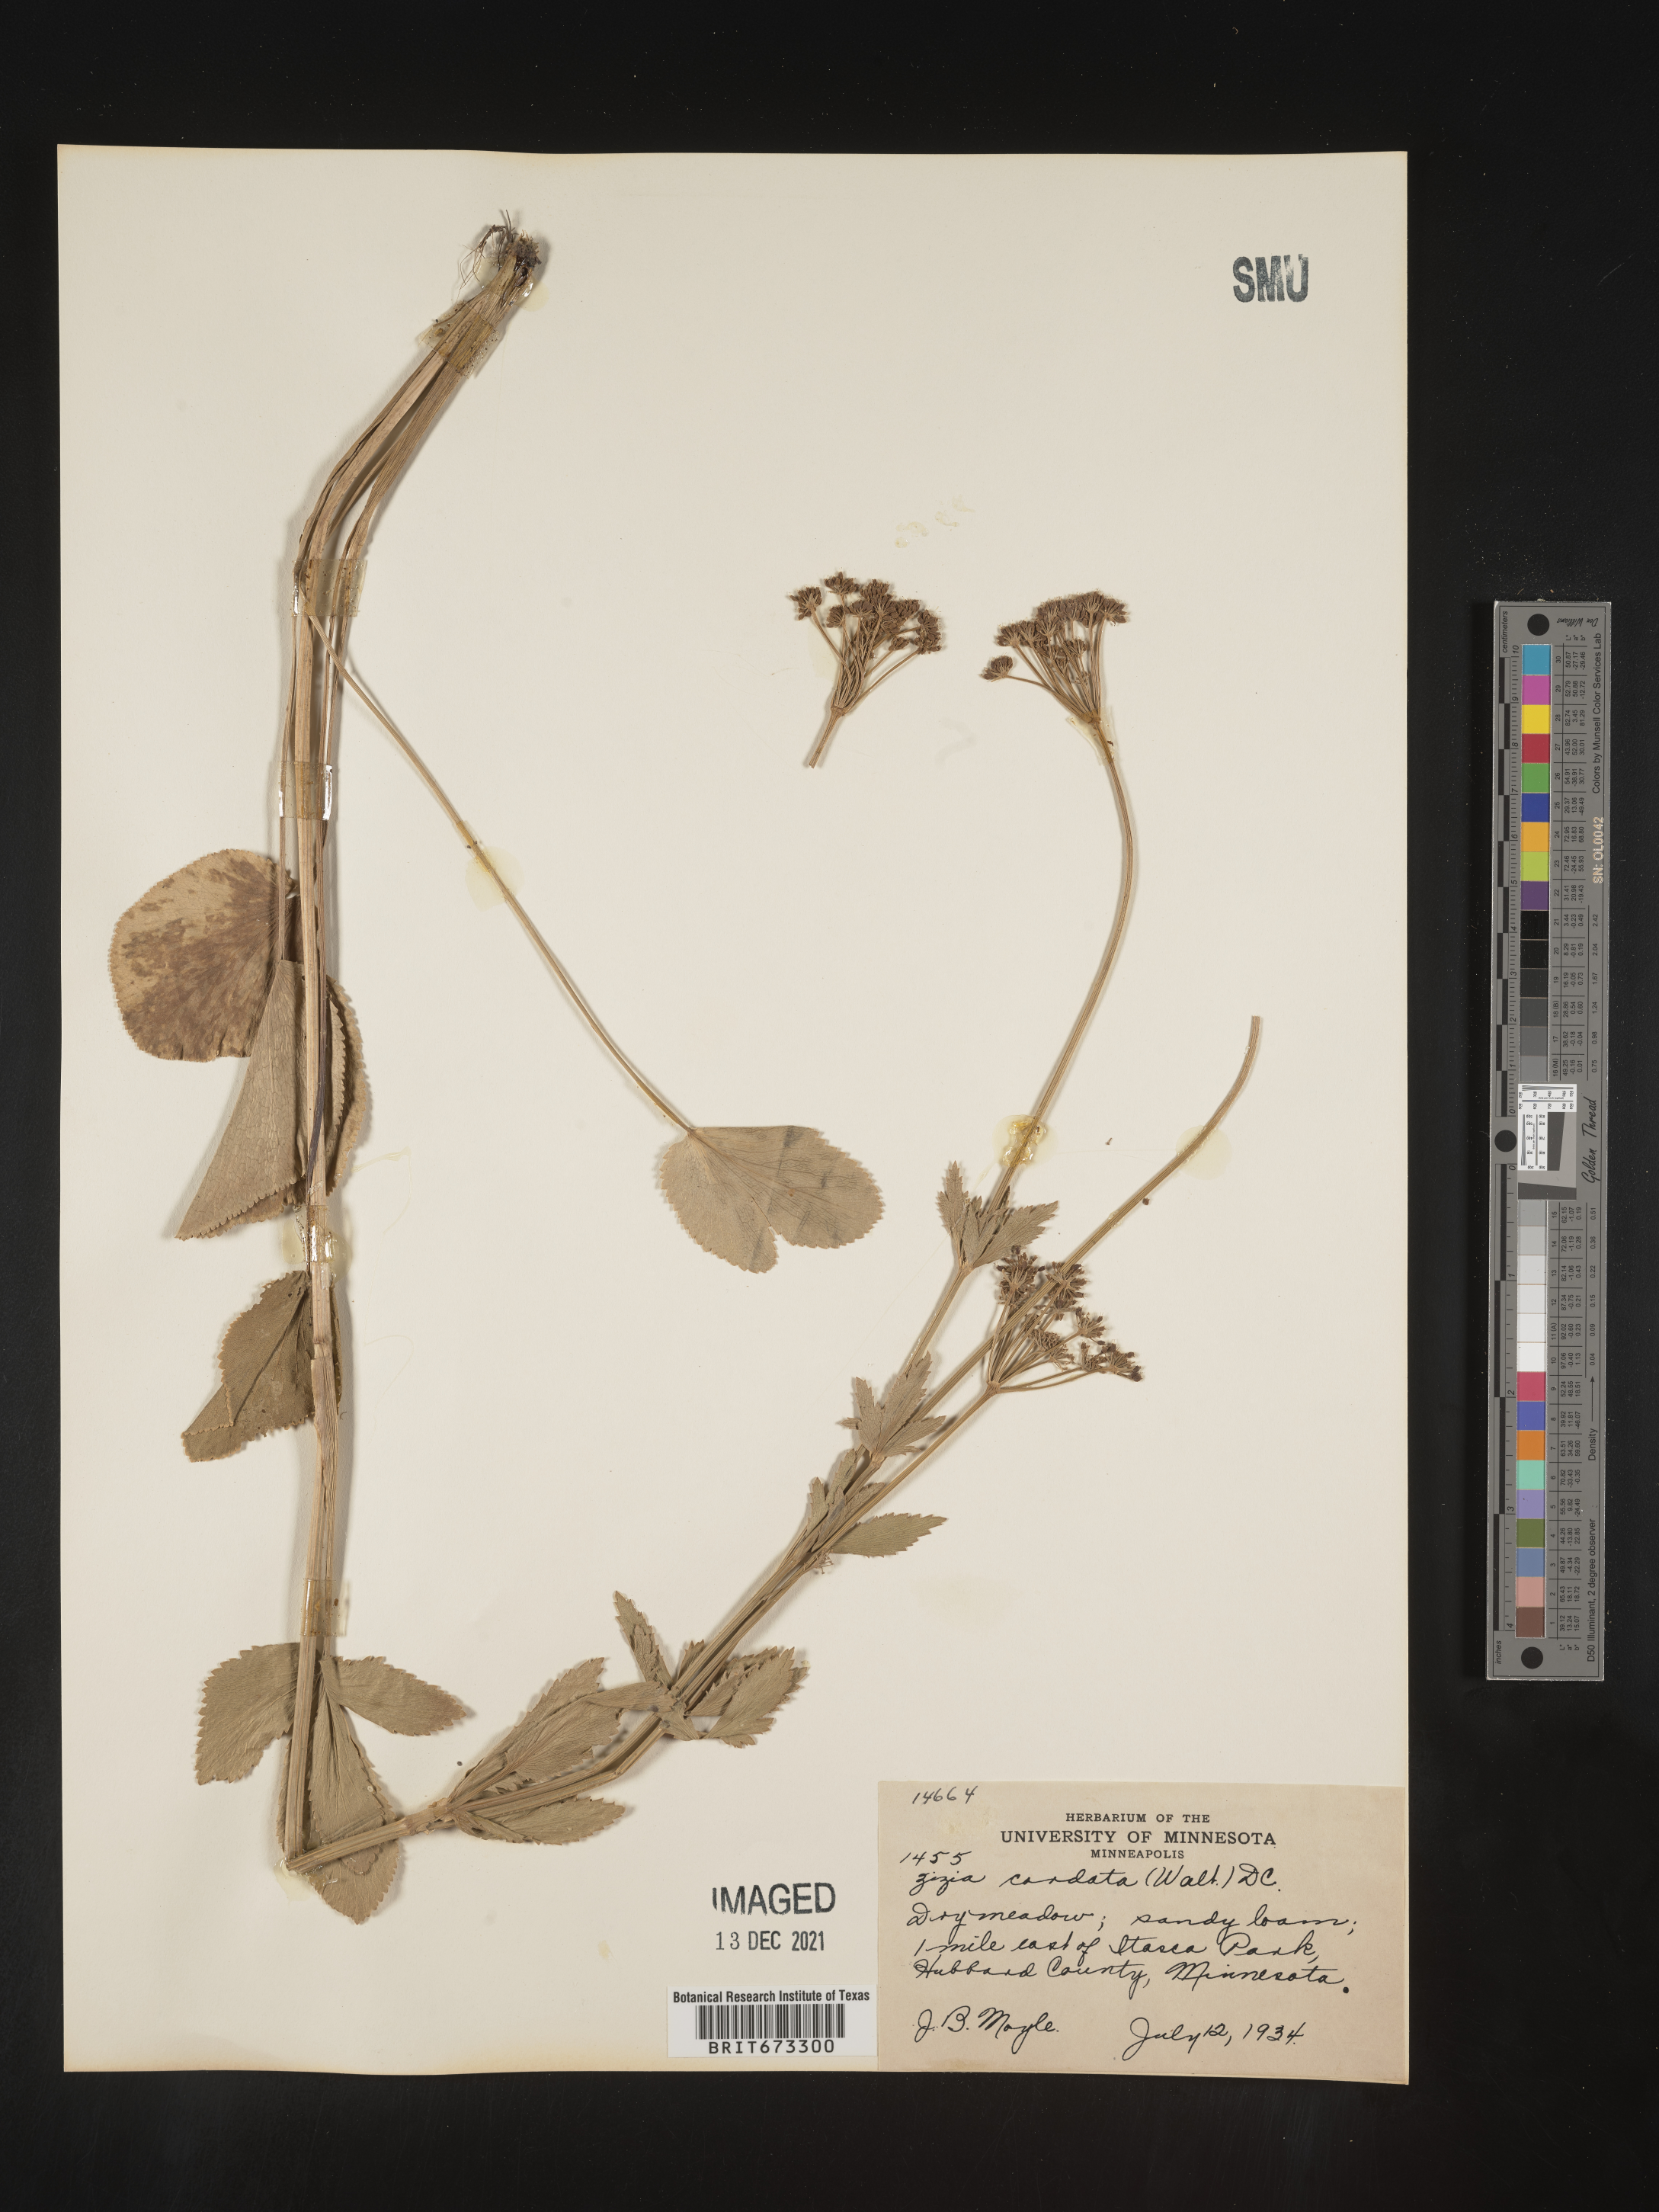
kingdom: Plantae
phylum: Tracheophyta
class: Magnoliopsida
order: Apiales
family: Apiaceae
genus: Zizia
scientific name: Zizia aptera
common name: Heart-leaved alexanders
